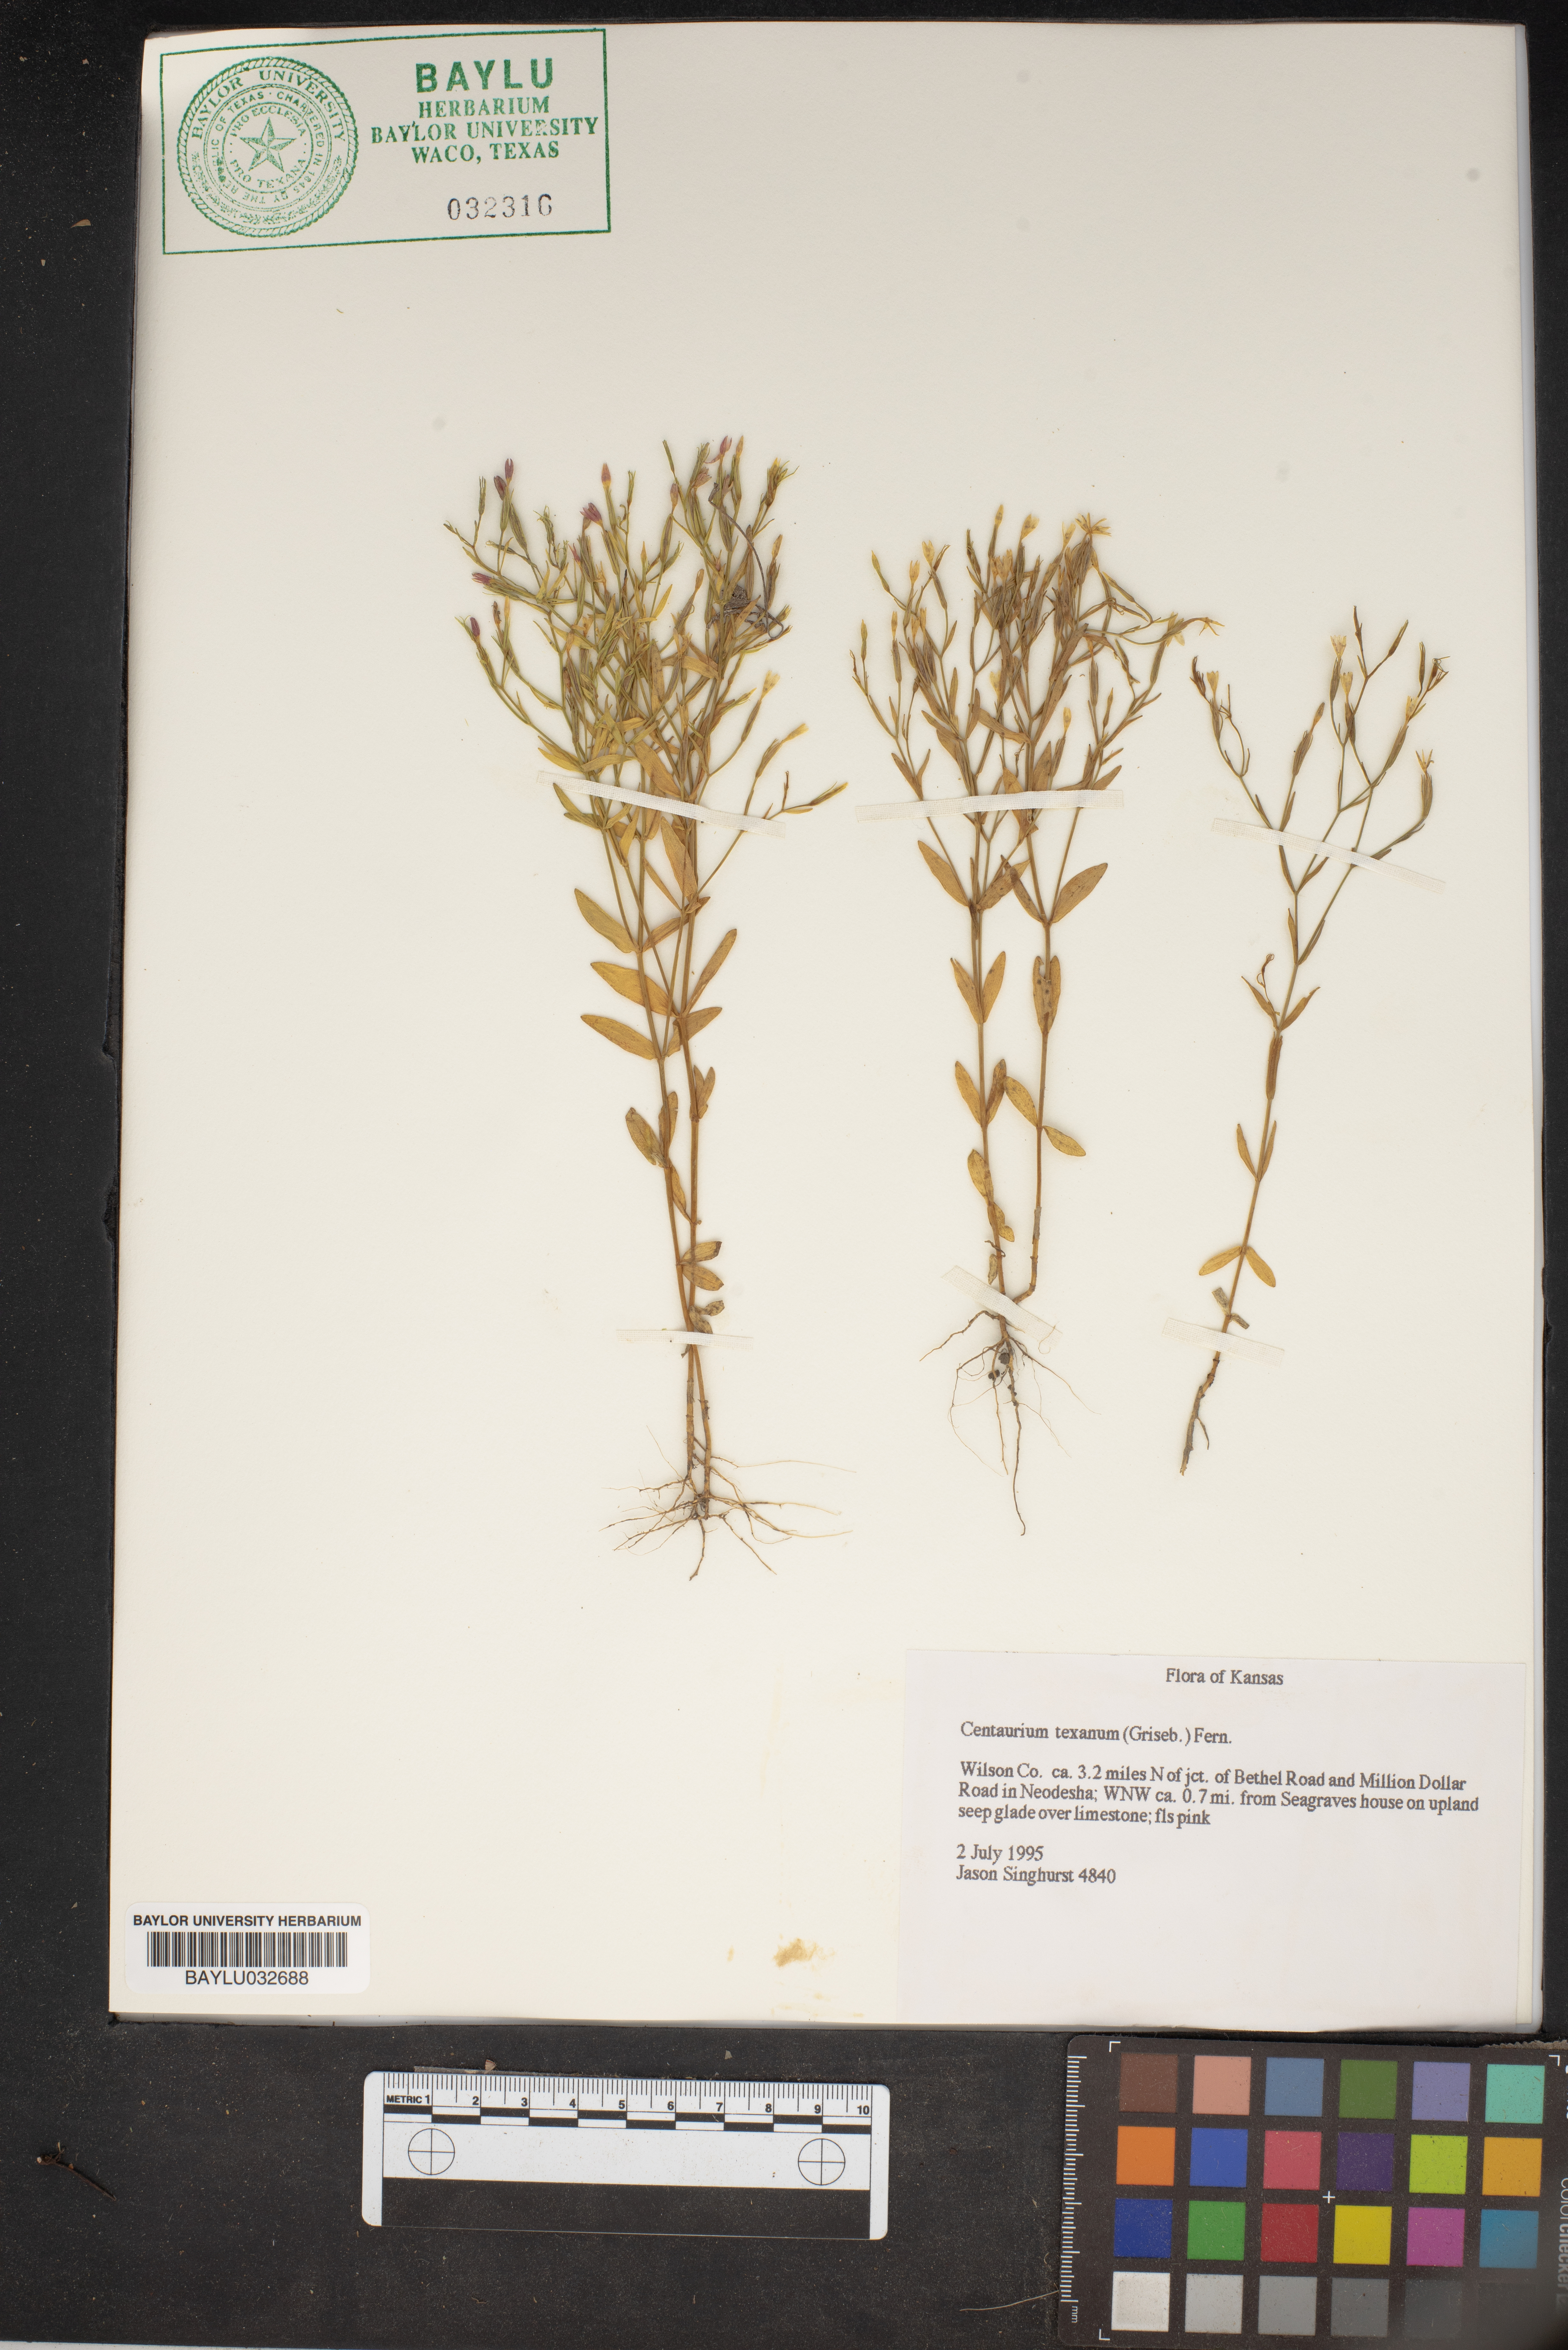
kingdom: Plantae
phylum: Tracheophyta
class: Magnoliopsida
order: Gentianales
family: Gentianaceae
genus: Zeltnera
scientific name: Zeltnera texensis
